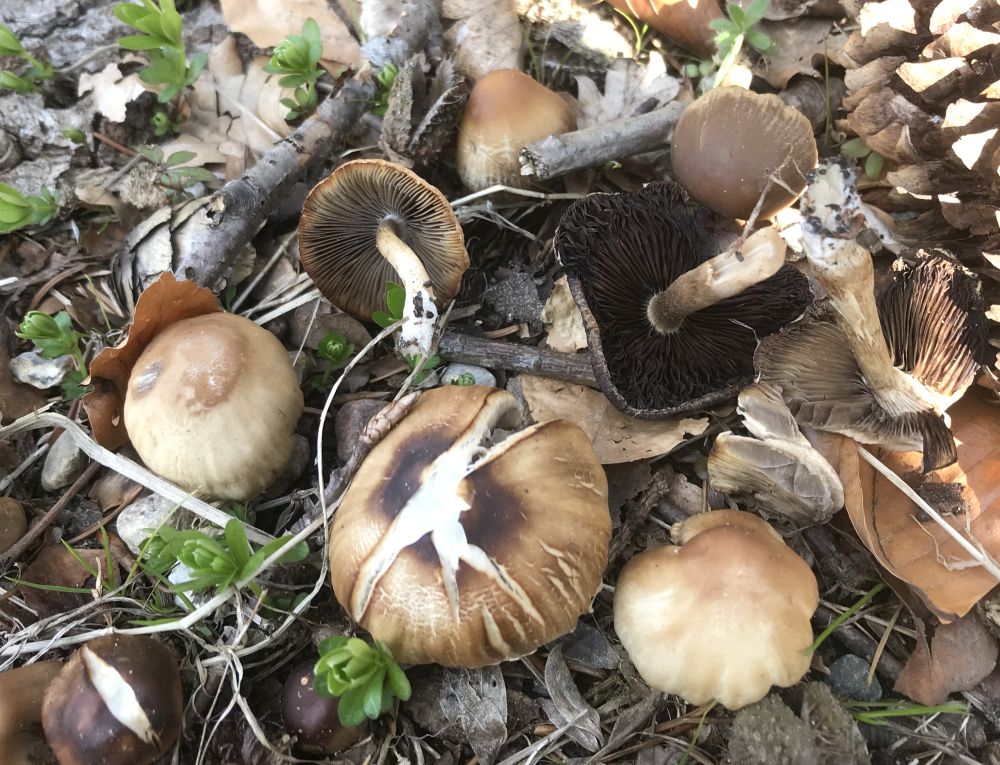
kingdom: Fungi
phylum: Basidiomycota
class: Agaricomycetes
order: Agaricales
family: Psathyrellaceae
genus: Psathyrella
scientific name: Psathyrella
